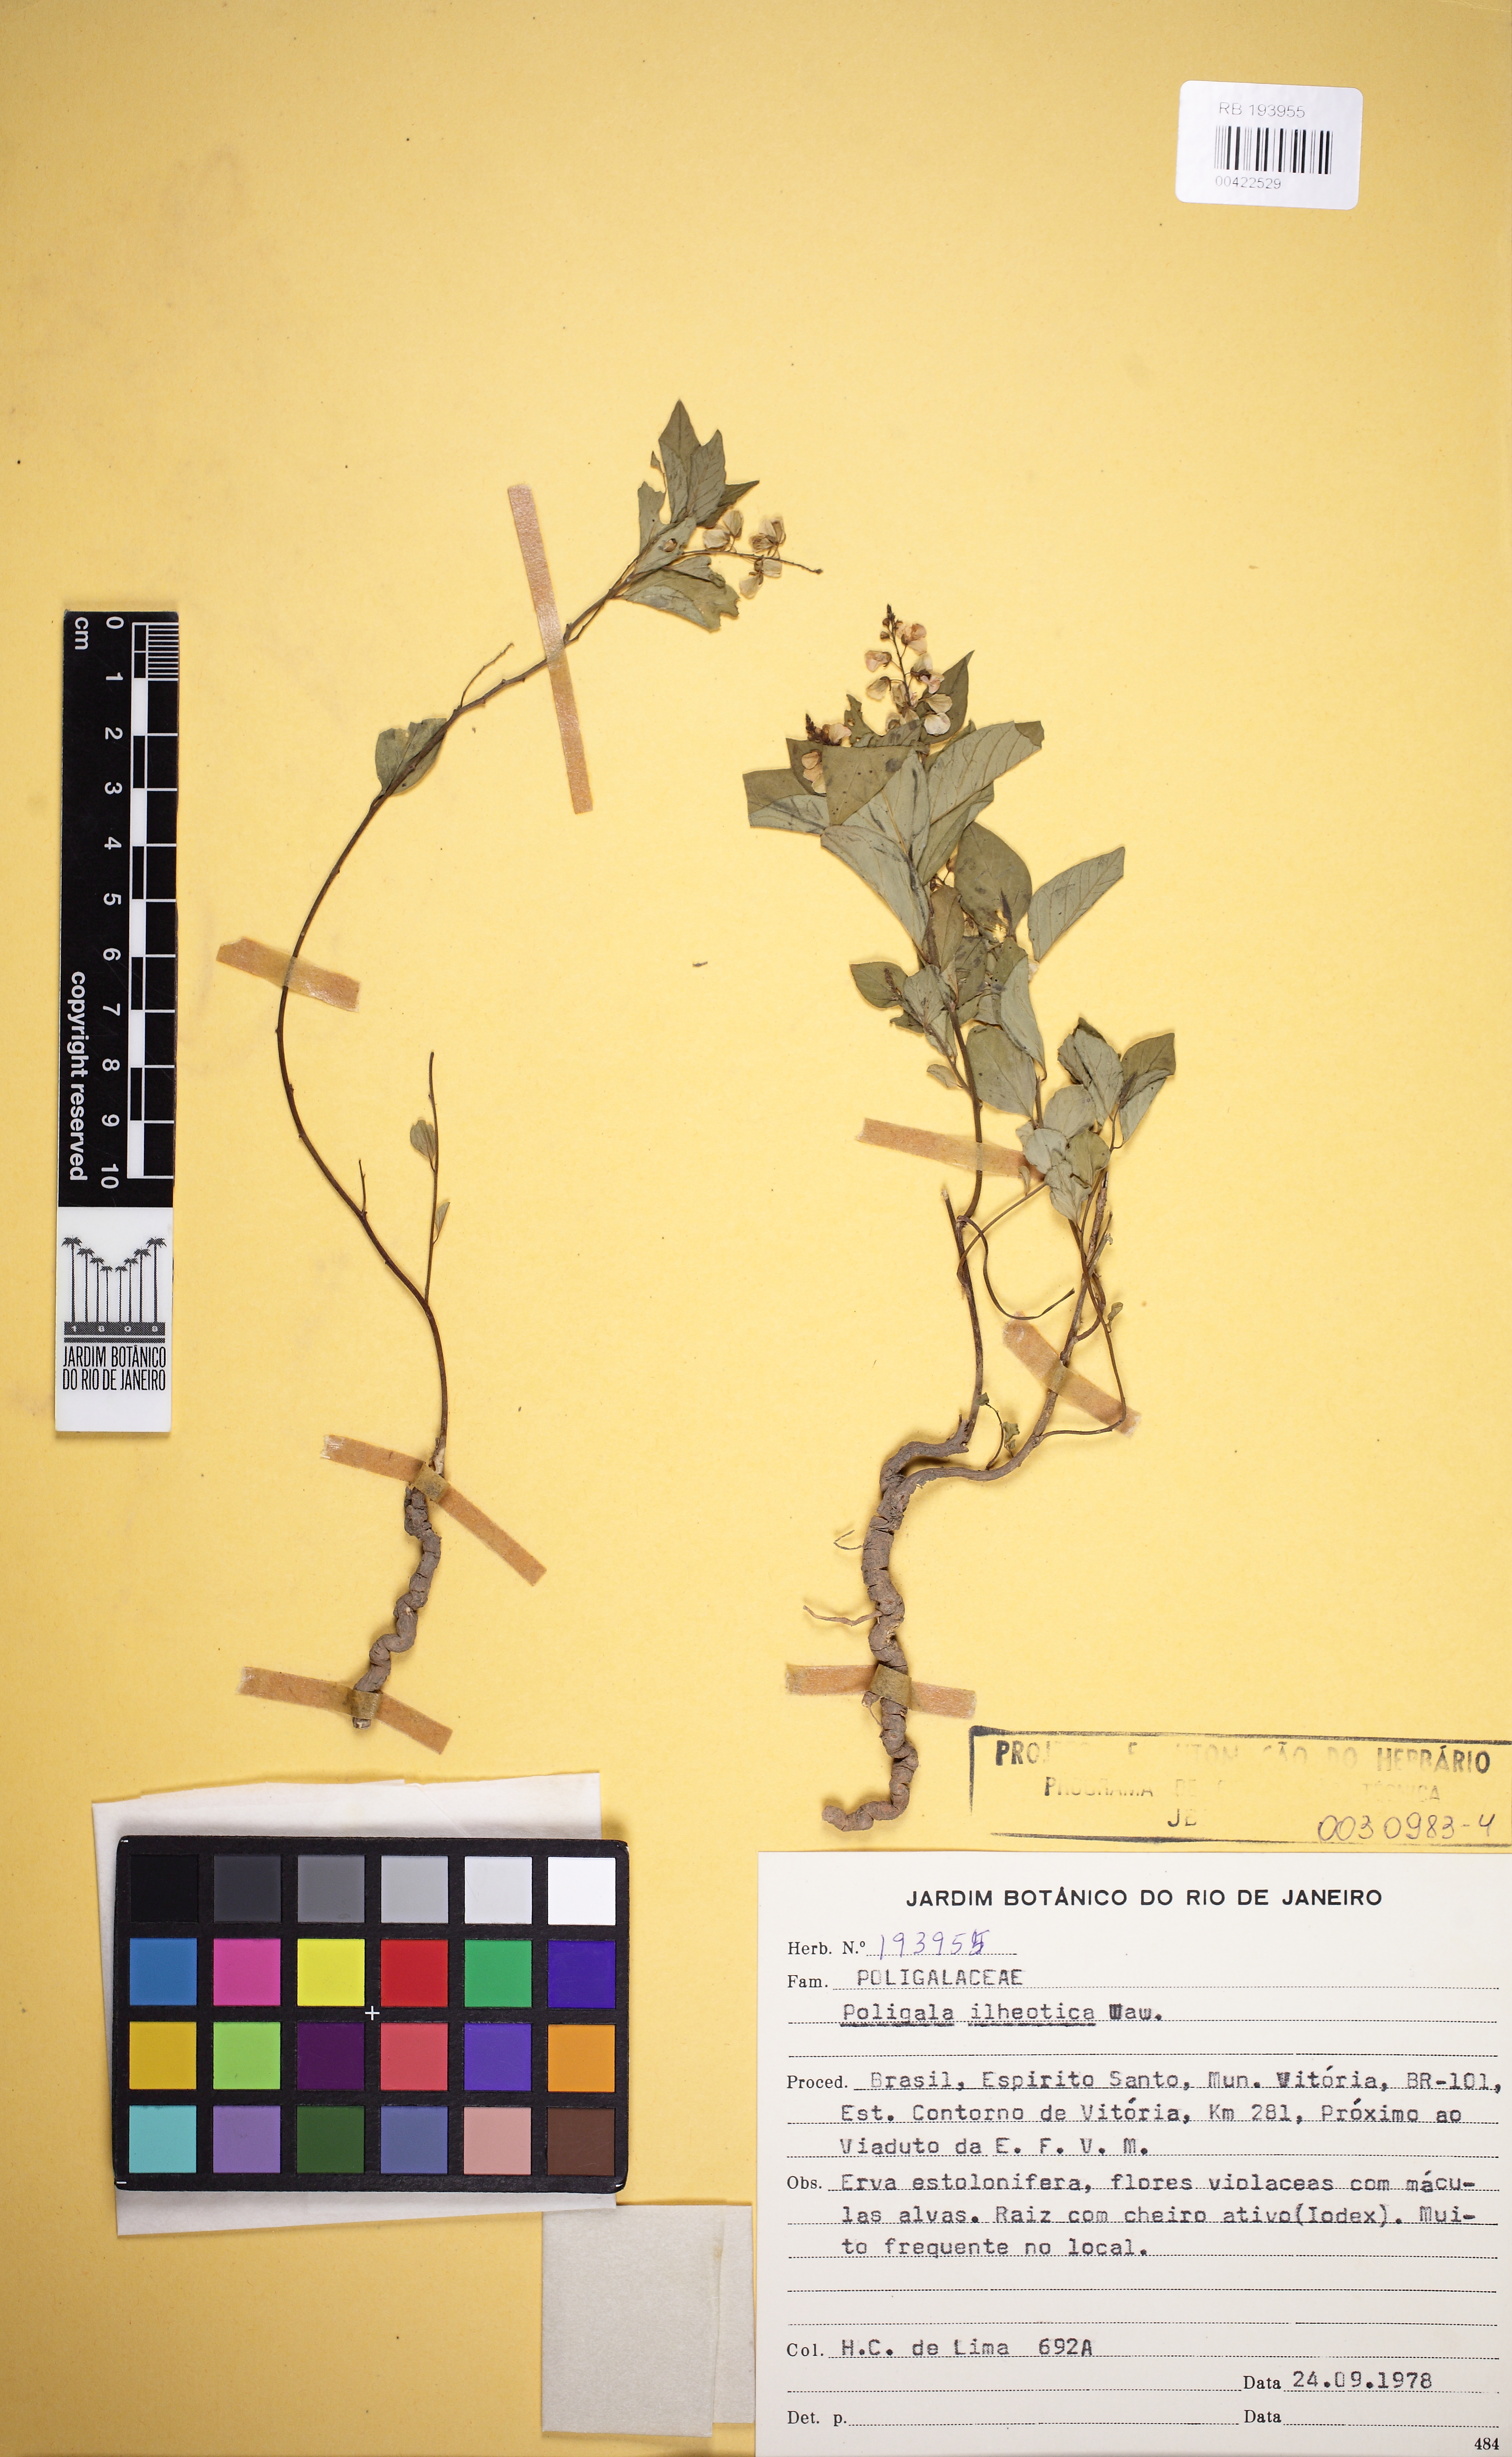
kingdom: Plantae
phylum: Tracheophyta
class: Magnoliopsida
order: Fabales
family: Polygalaceae
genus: Asemeia
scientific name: Asemeia ilheotica
